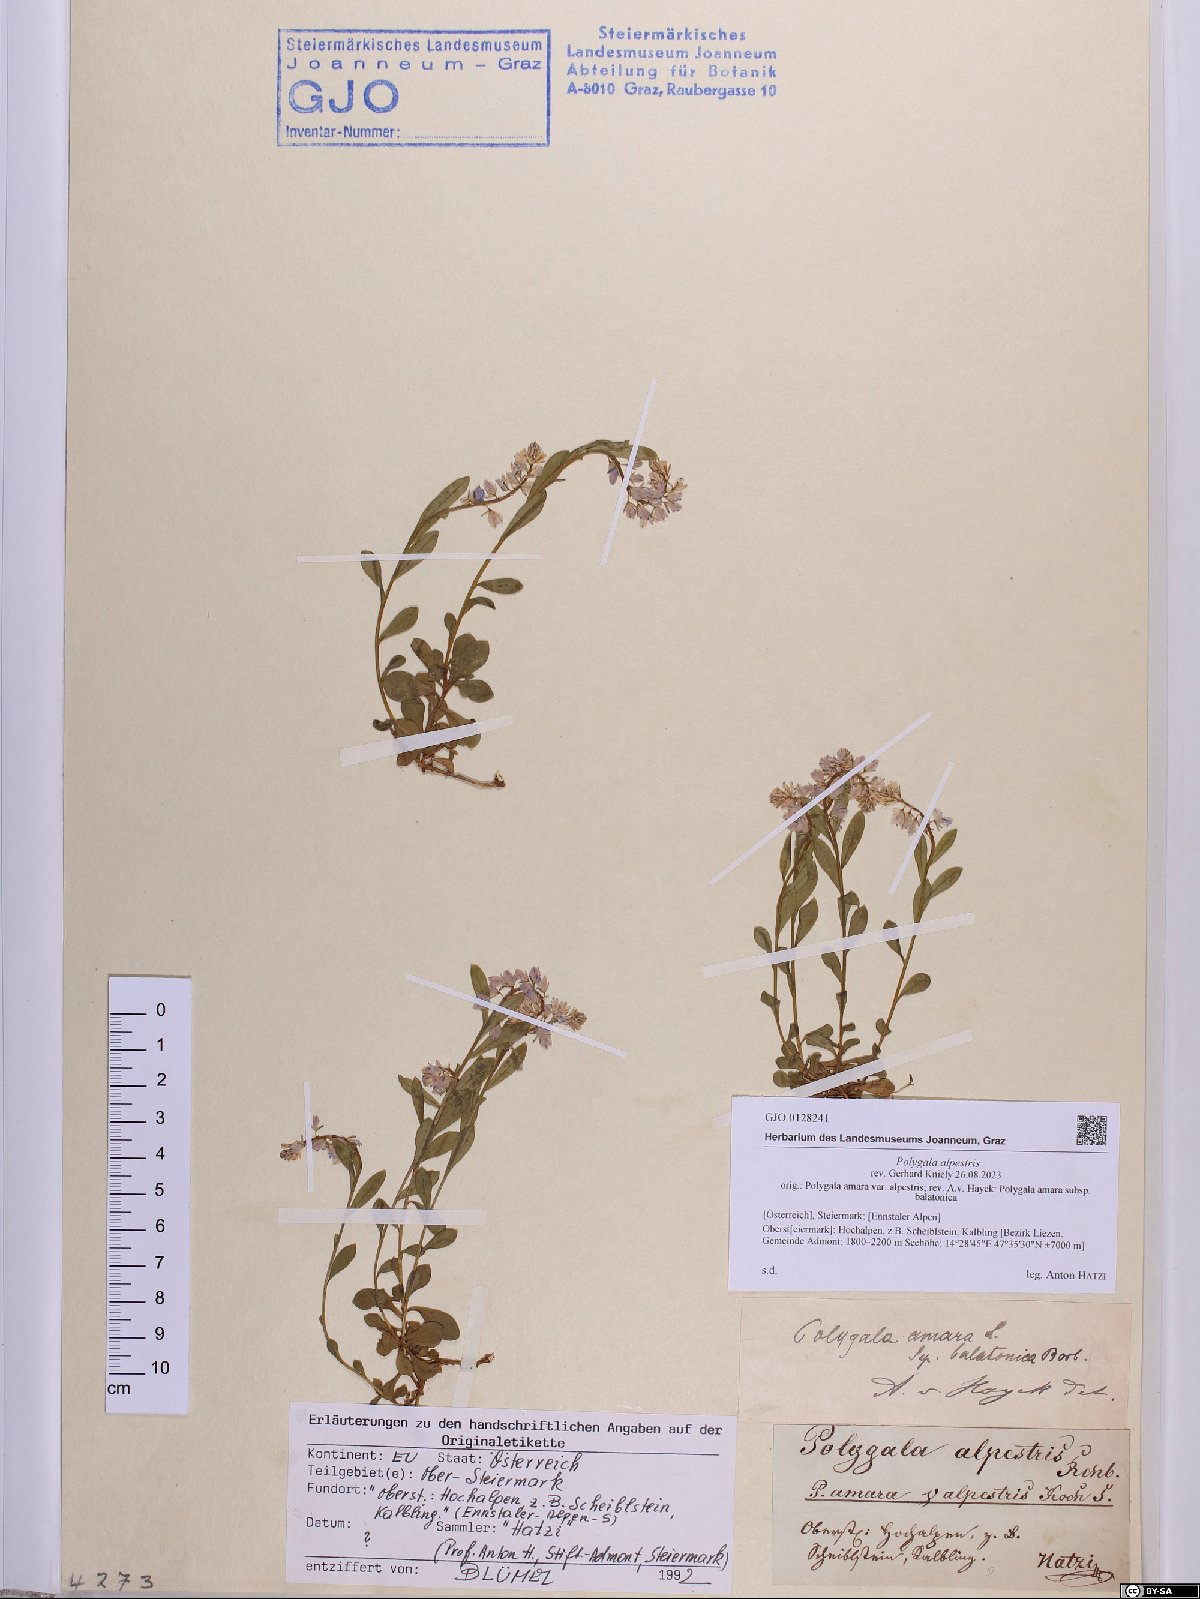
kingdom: Plantae
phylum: Tracheophyta
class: Magnoliopsida
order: Fabales
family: Polygalaceae
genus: Polygala
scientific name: Polygala alpestris
